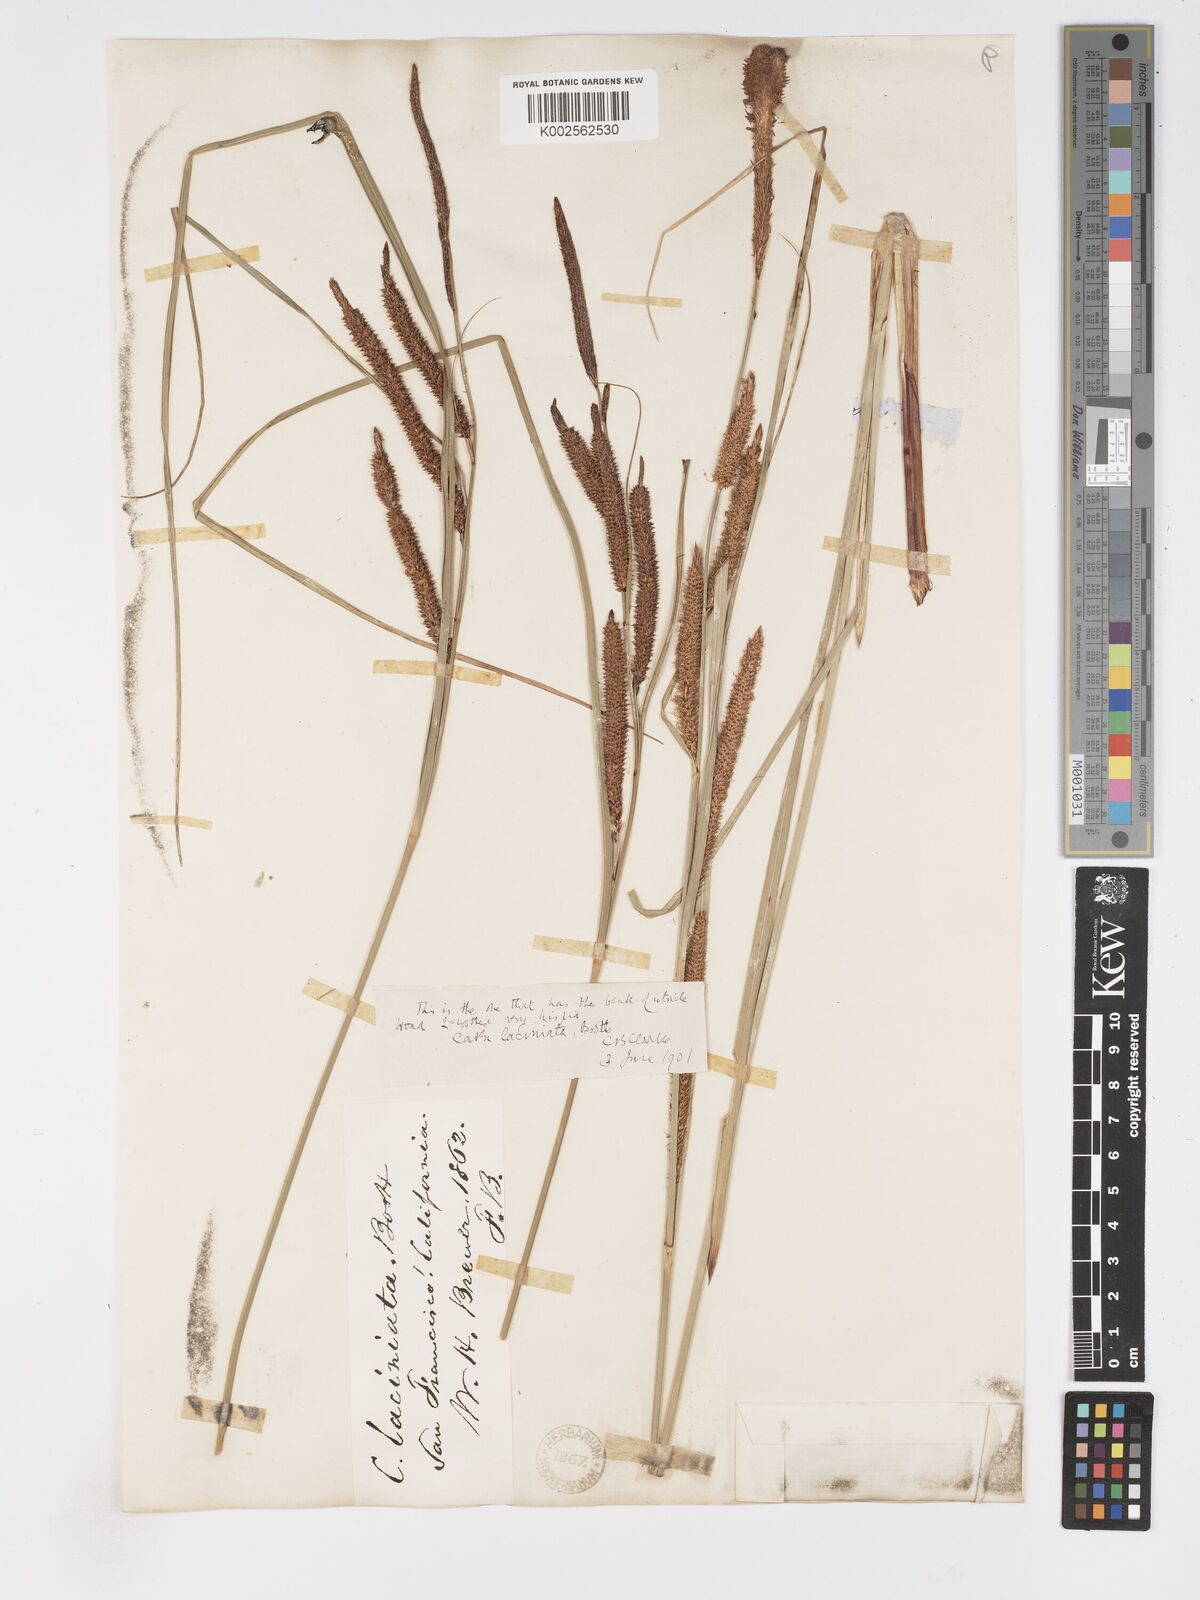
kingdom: Plantae
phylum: Tracheophyta
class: Liliopsida
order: Poales
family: Cyperaceae
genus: Carex
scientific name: Carex barbarae
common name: Santa barbara sedge
